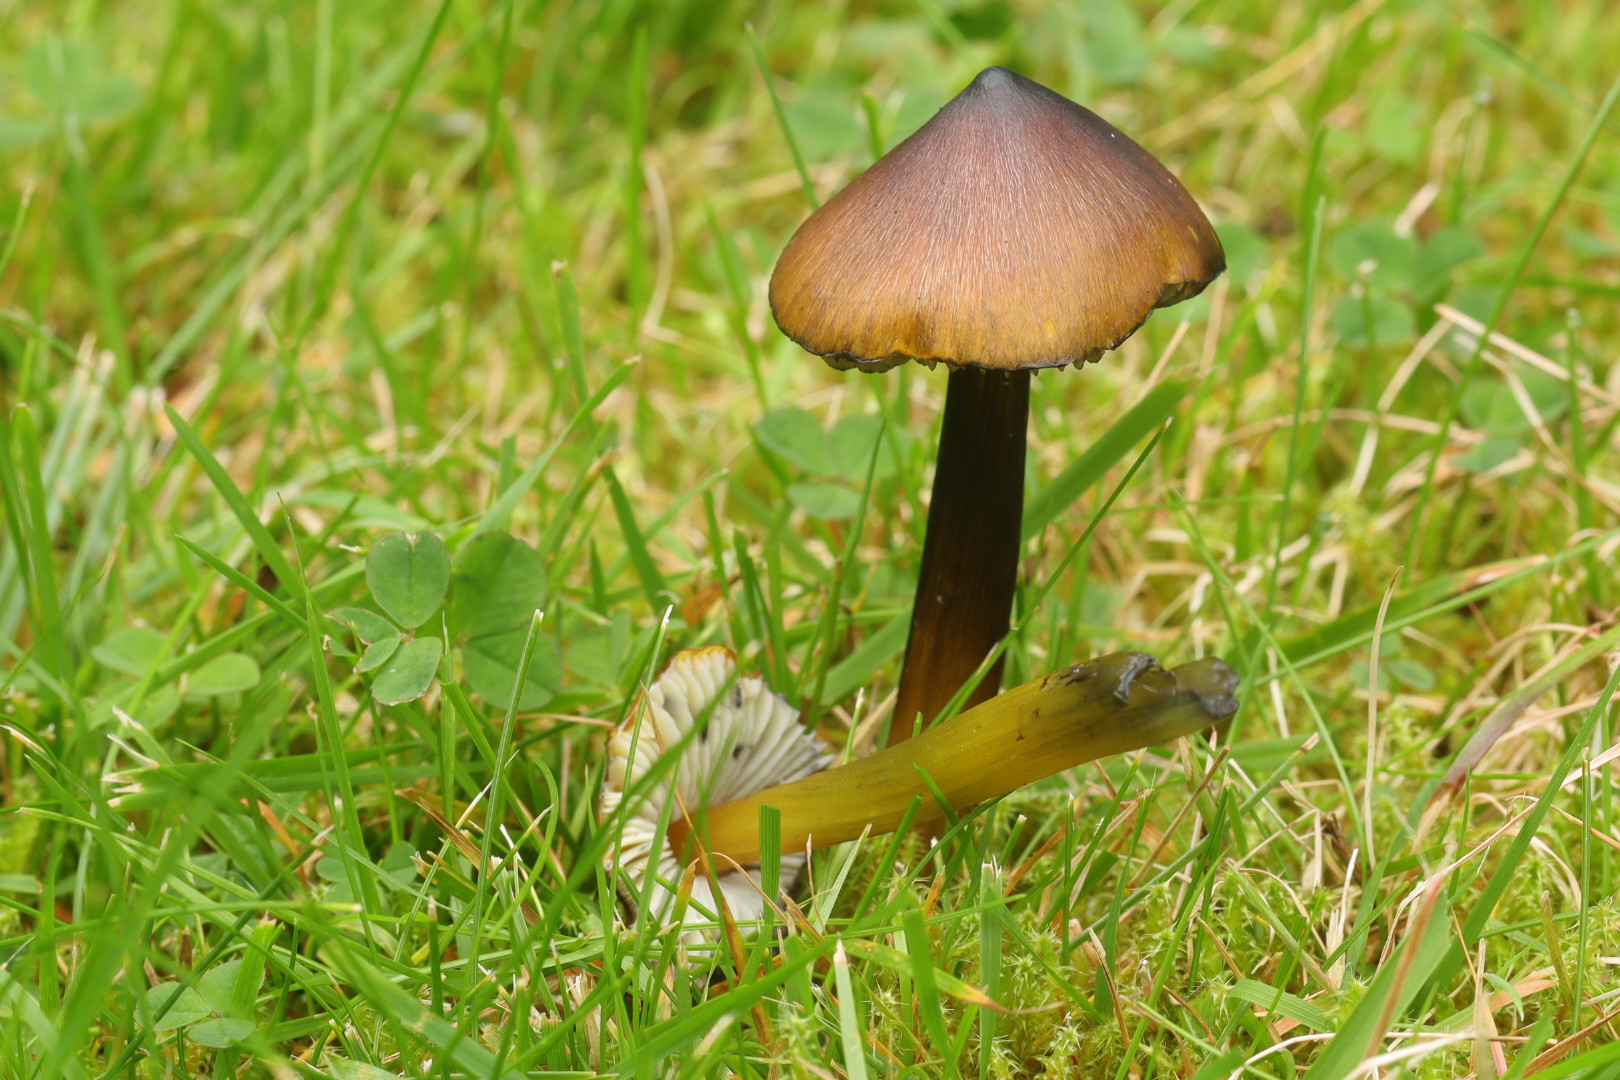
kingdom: Fungi
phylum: Basidiomycota
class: Agaricomycetes
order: Agaricales
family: Hygrophoraceae
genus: Hygrocybe
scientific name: Hygrocybe conica
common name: kegle-vokshat
